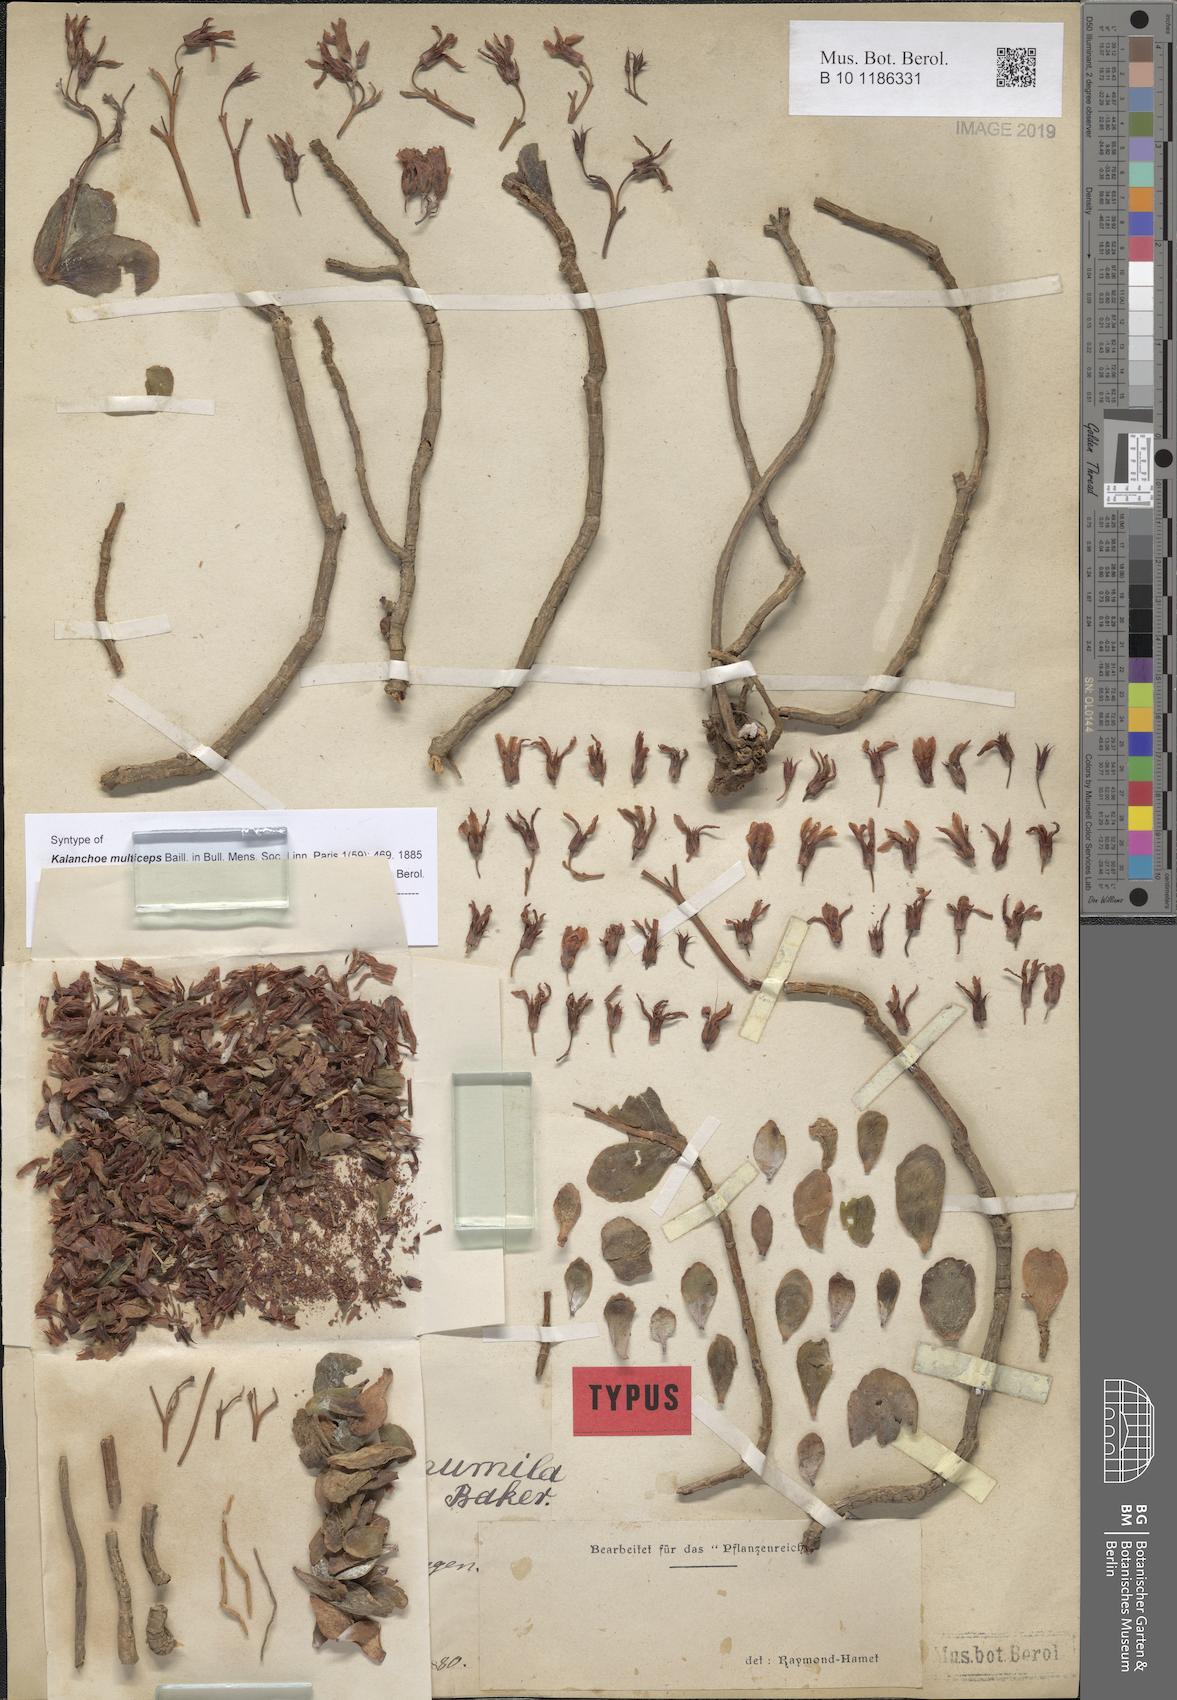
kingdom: Plantae
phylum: Tracheophyta
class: Magnoliopsida
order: Saxifragales
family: Crassulaceae
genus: Kalanchoe
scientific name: Kalanchoe pumila
